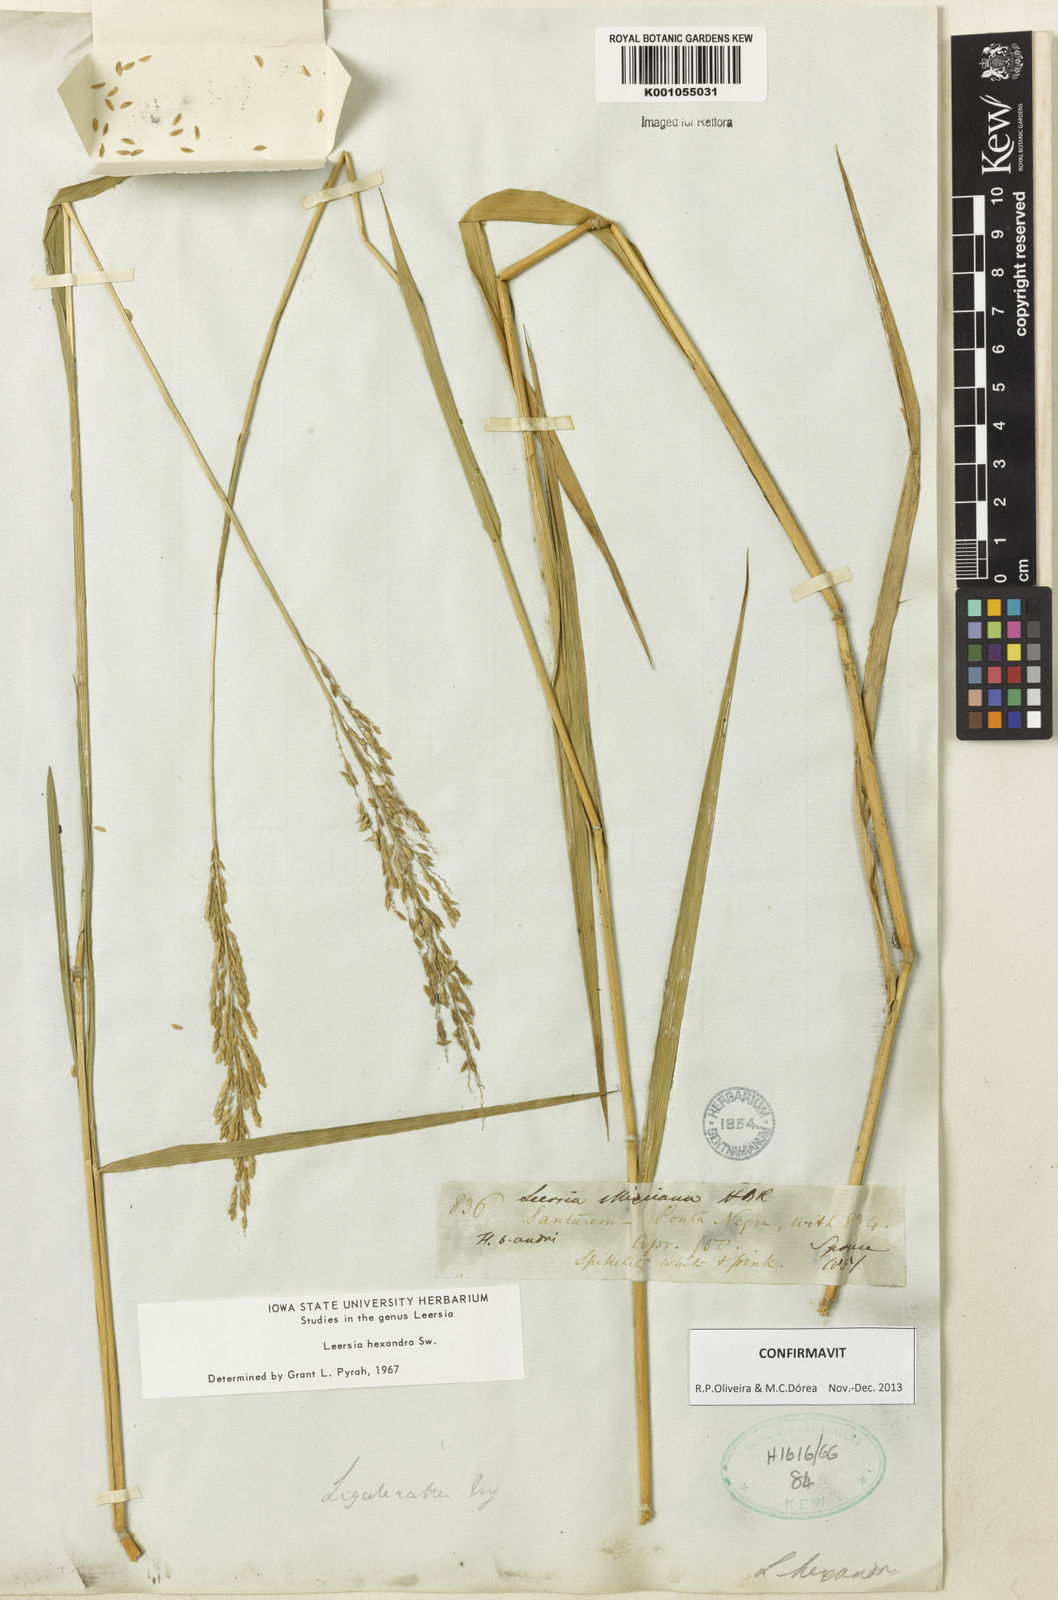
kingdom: Plantae
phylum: Tracheophyta
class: Liliopsida
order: Poales
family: Poaceae
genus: Leersia
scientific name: Leersia hexandra
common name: Southern cut grass
